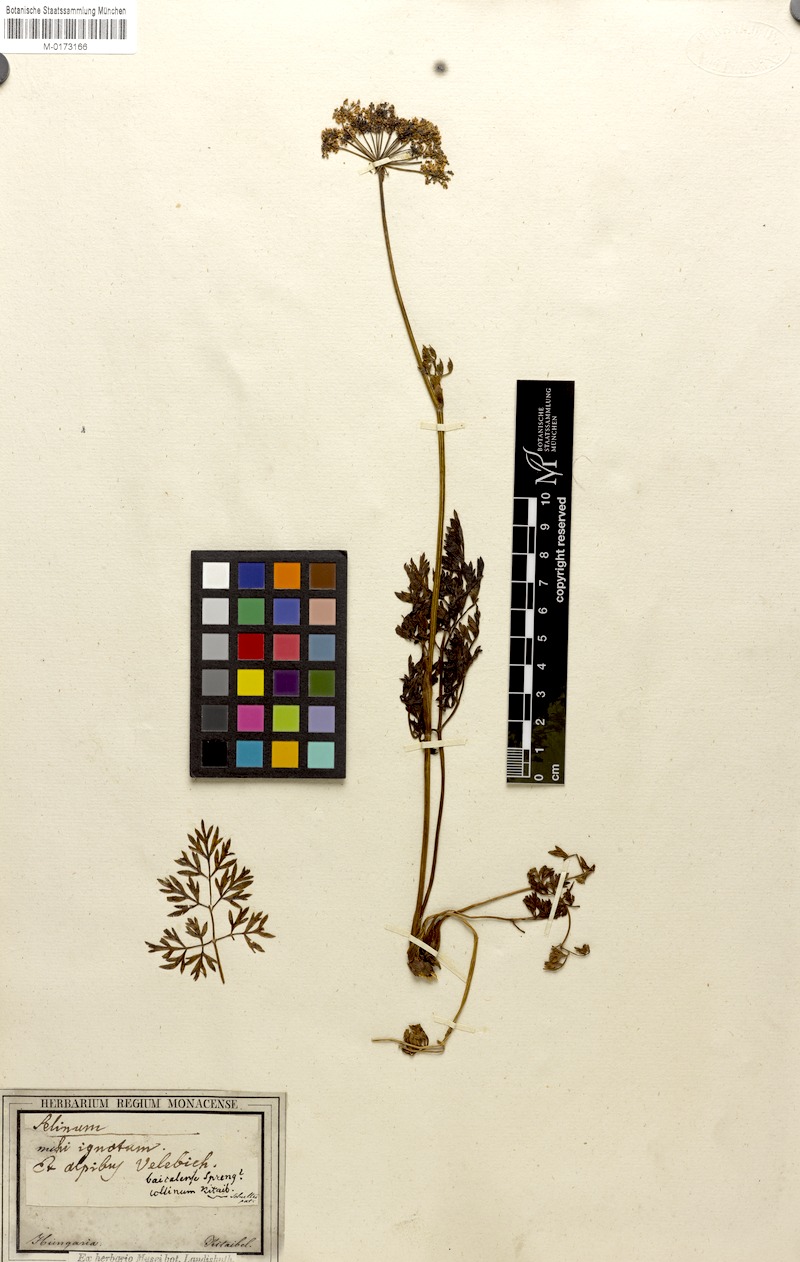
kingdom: Plantae
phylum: Tracheophyta
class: Magnoliopsida
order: Apiales
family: Apiaceae
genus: Peucedanum
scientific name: Peucedanum austriacum
